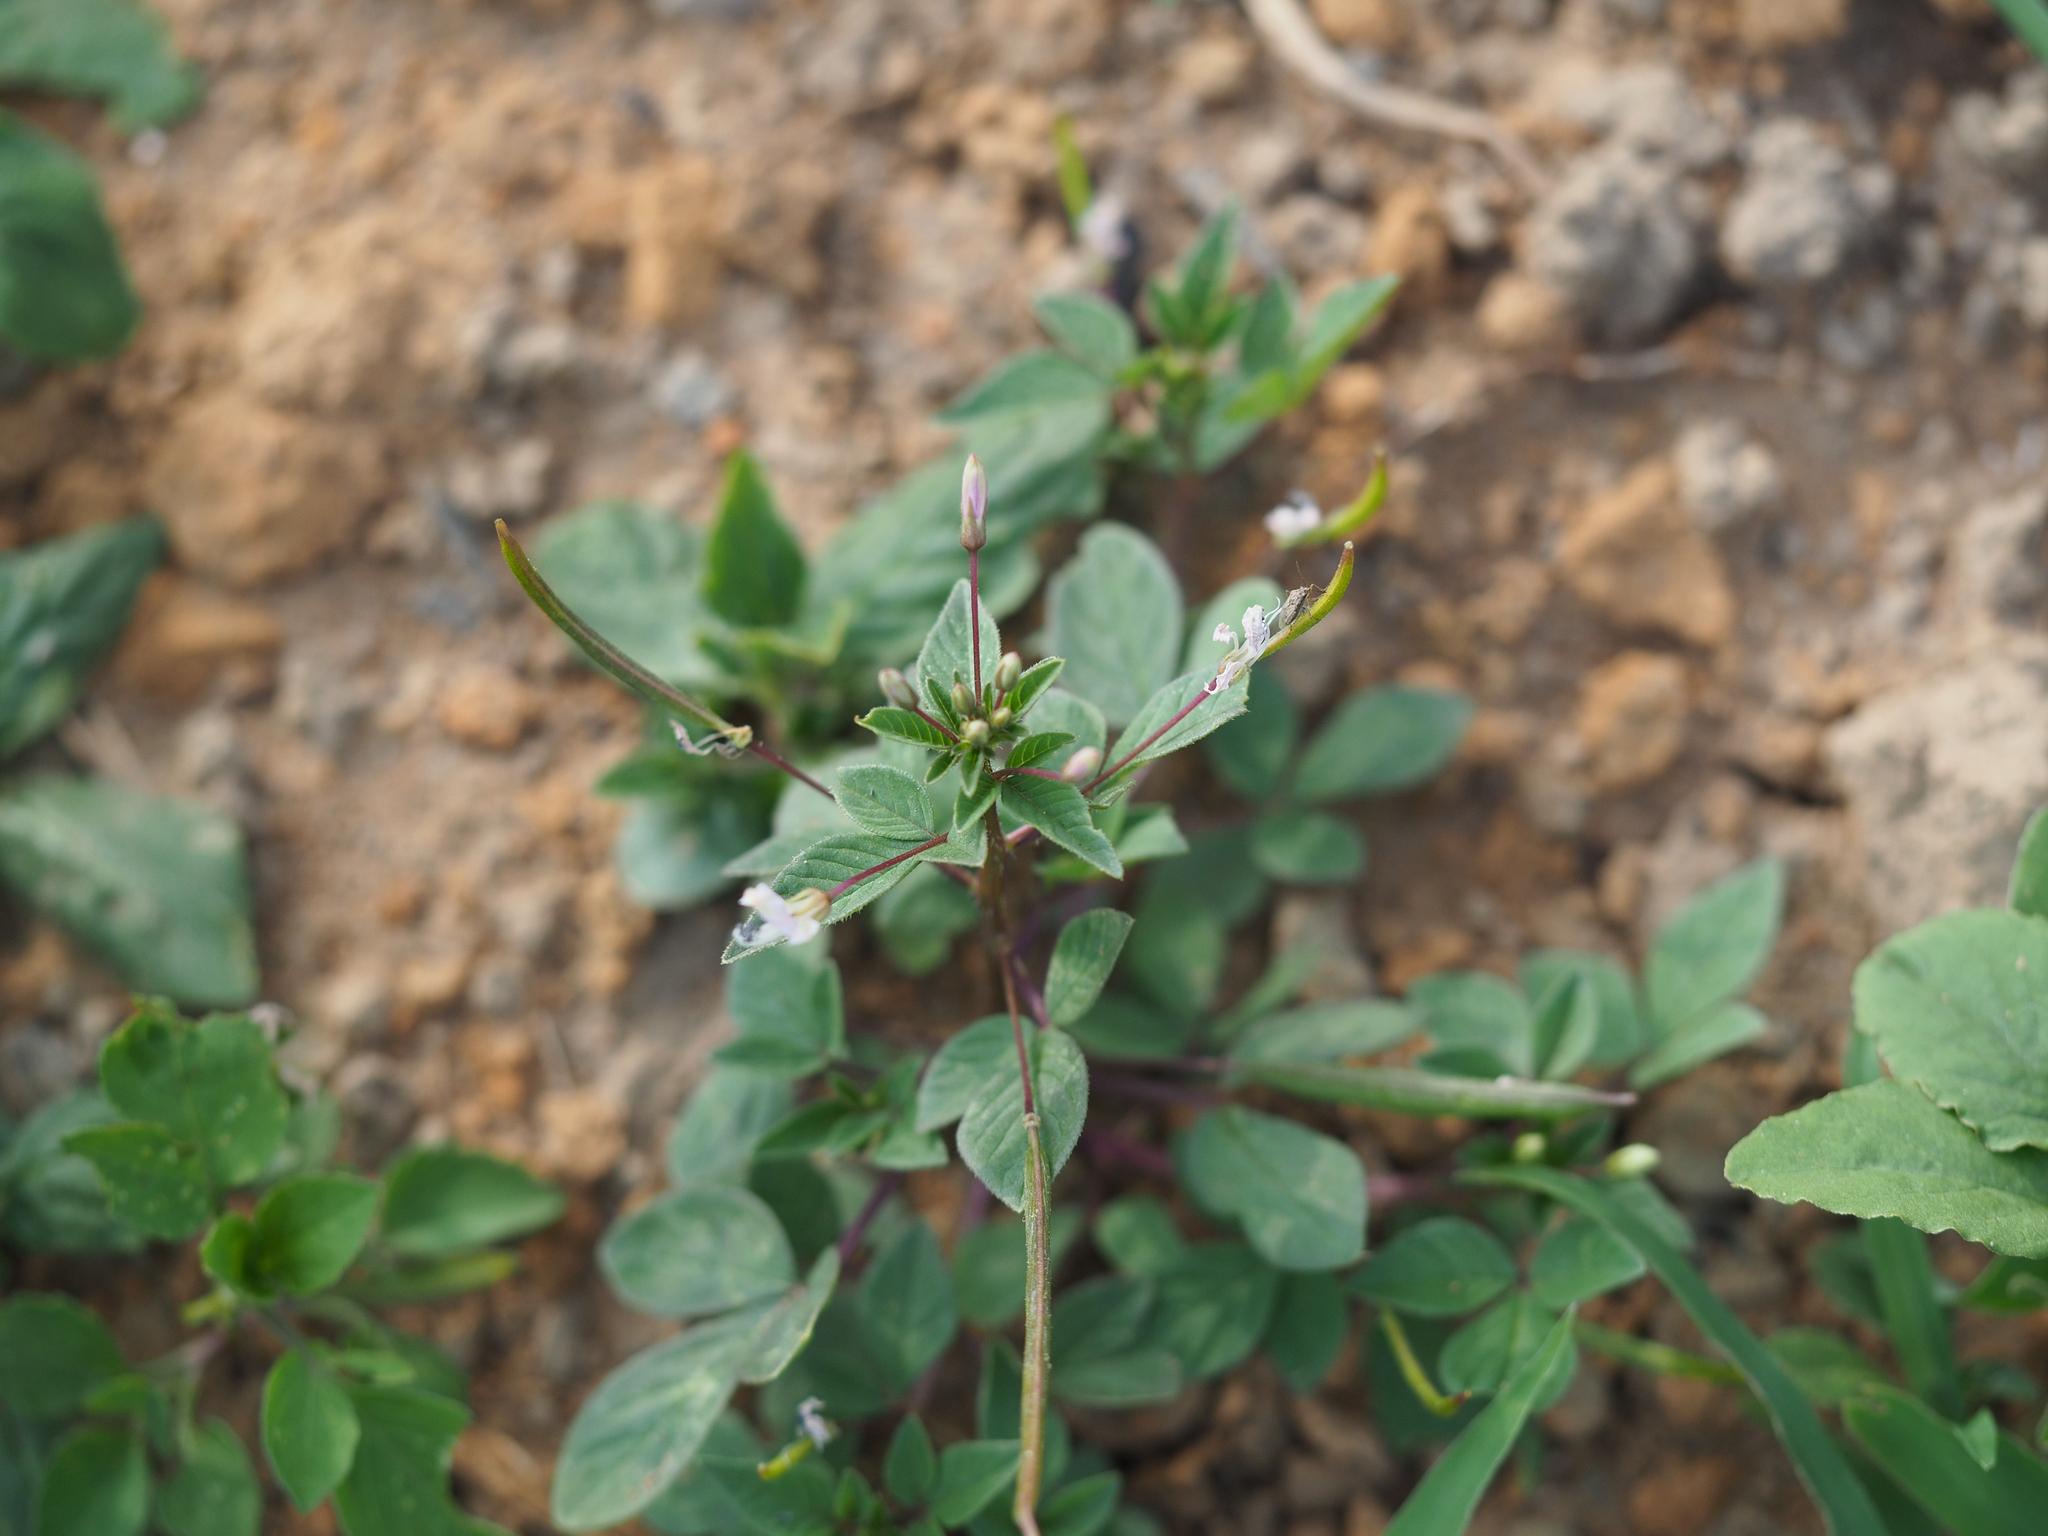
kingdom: Plantae
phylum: Tracheophyta
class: Magnoliopsida
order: Brassicales
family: Cleomaceae
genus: Sieruela
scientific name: Sieruela rutidosperma
